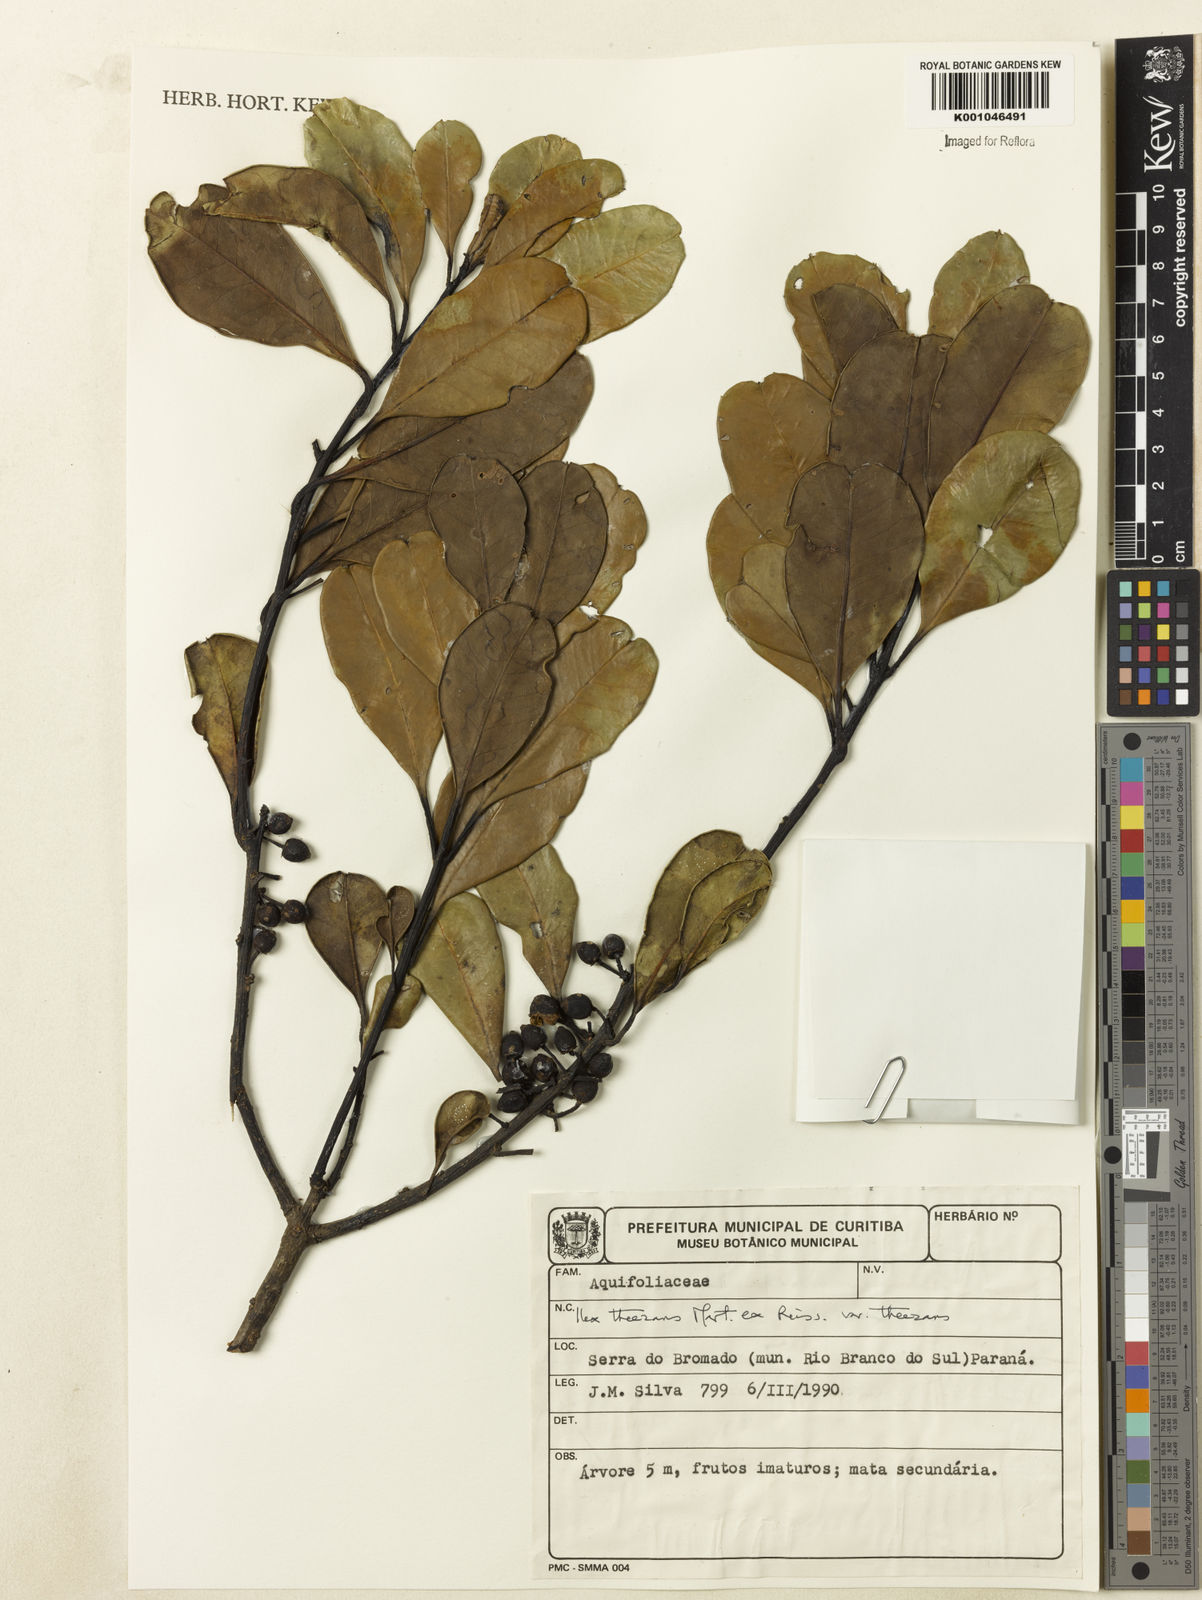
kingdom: Plantae
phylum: Tracheophyta
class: Magnoliopsida
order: Aquifoliales
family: Aquifoliaceae
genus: Ilex
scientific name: Ilex paraguariensis
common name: Paraguay tea
